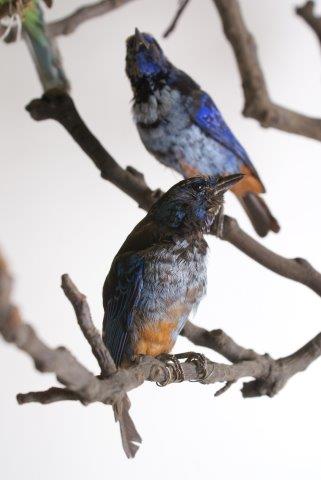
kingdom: Animalia
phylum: Chordata
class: Aves
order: Passeriformes
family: Thraupidae
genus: Tangara
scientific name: Tangara velia
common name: Opal-rumped tanager
